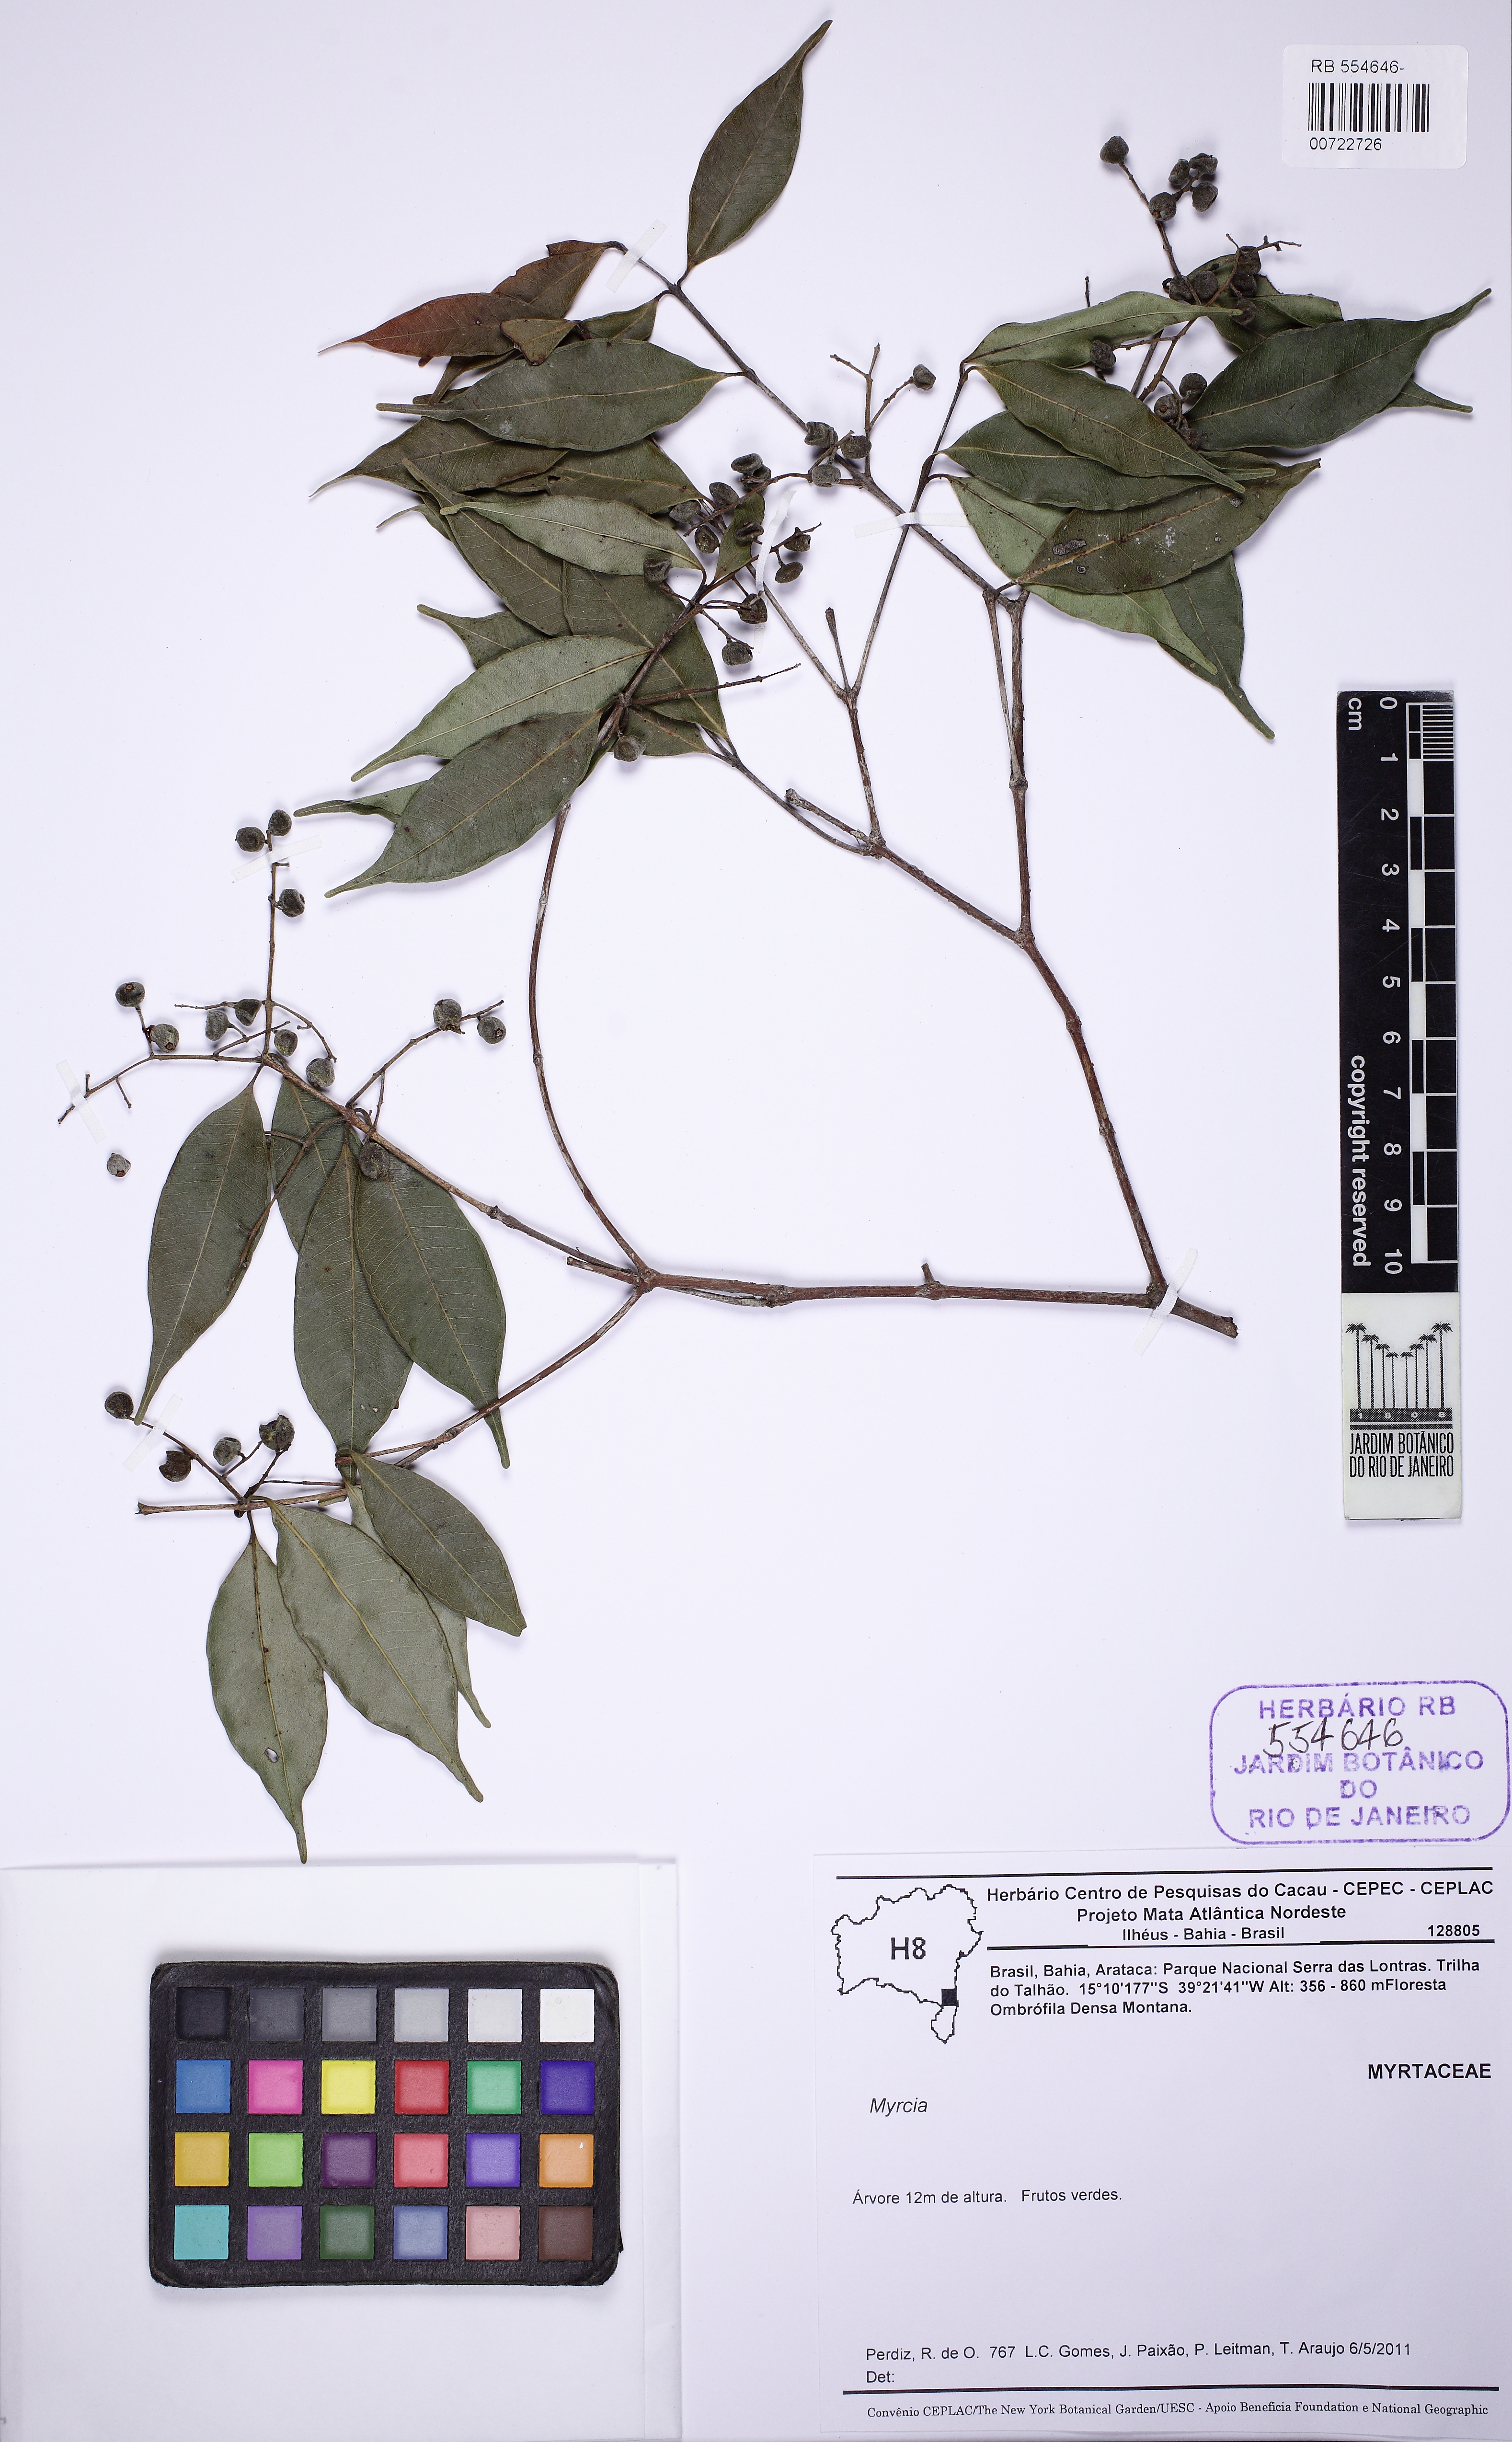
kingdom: Plantae
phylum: Tracheophyta
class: Magnoliopsida
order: Myrtales
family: Myrtaceae
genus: Myrcia
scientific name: Myrcia racemosa
